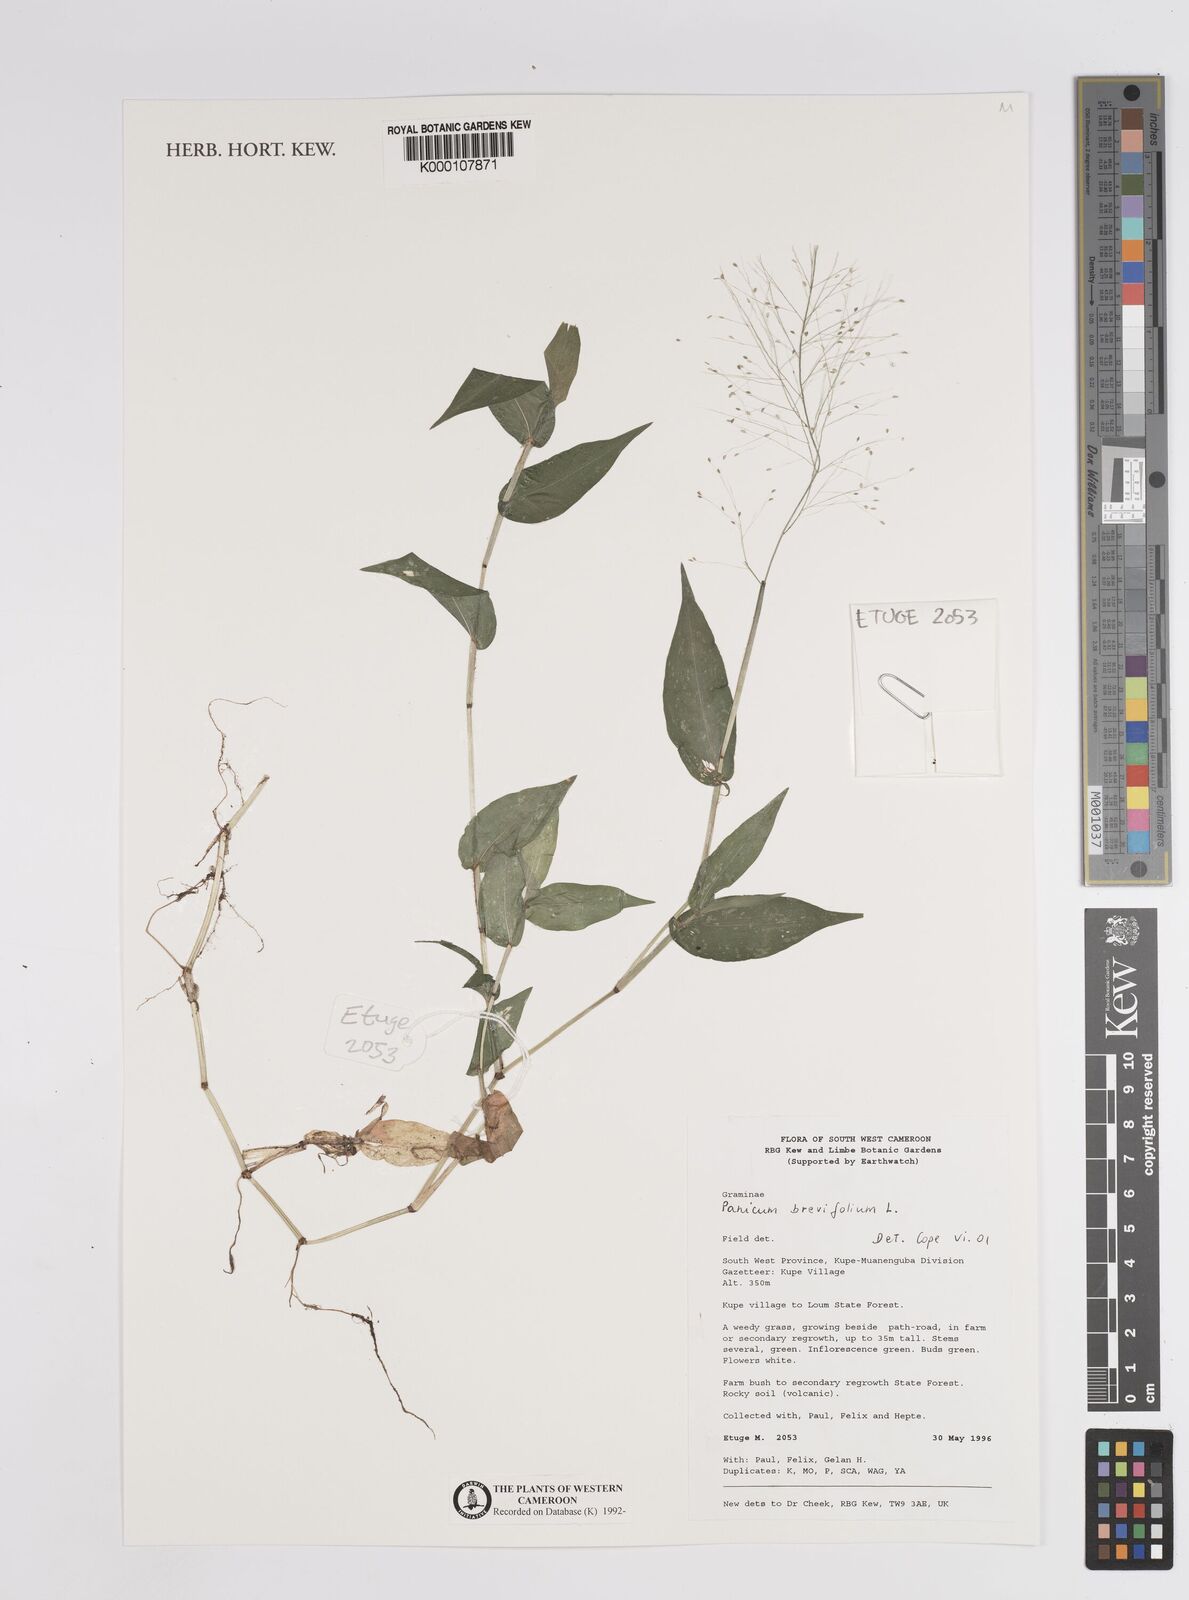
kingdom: Plantae
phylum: Tracheophyta
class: Liliopsida
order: Poales
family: Poaceae
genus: Panicum
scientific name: Panicum brevifolium
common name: Shortleaf panic grass
